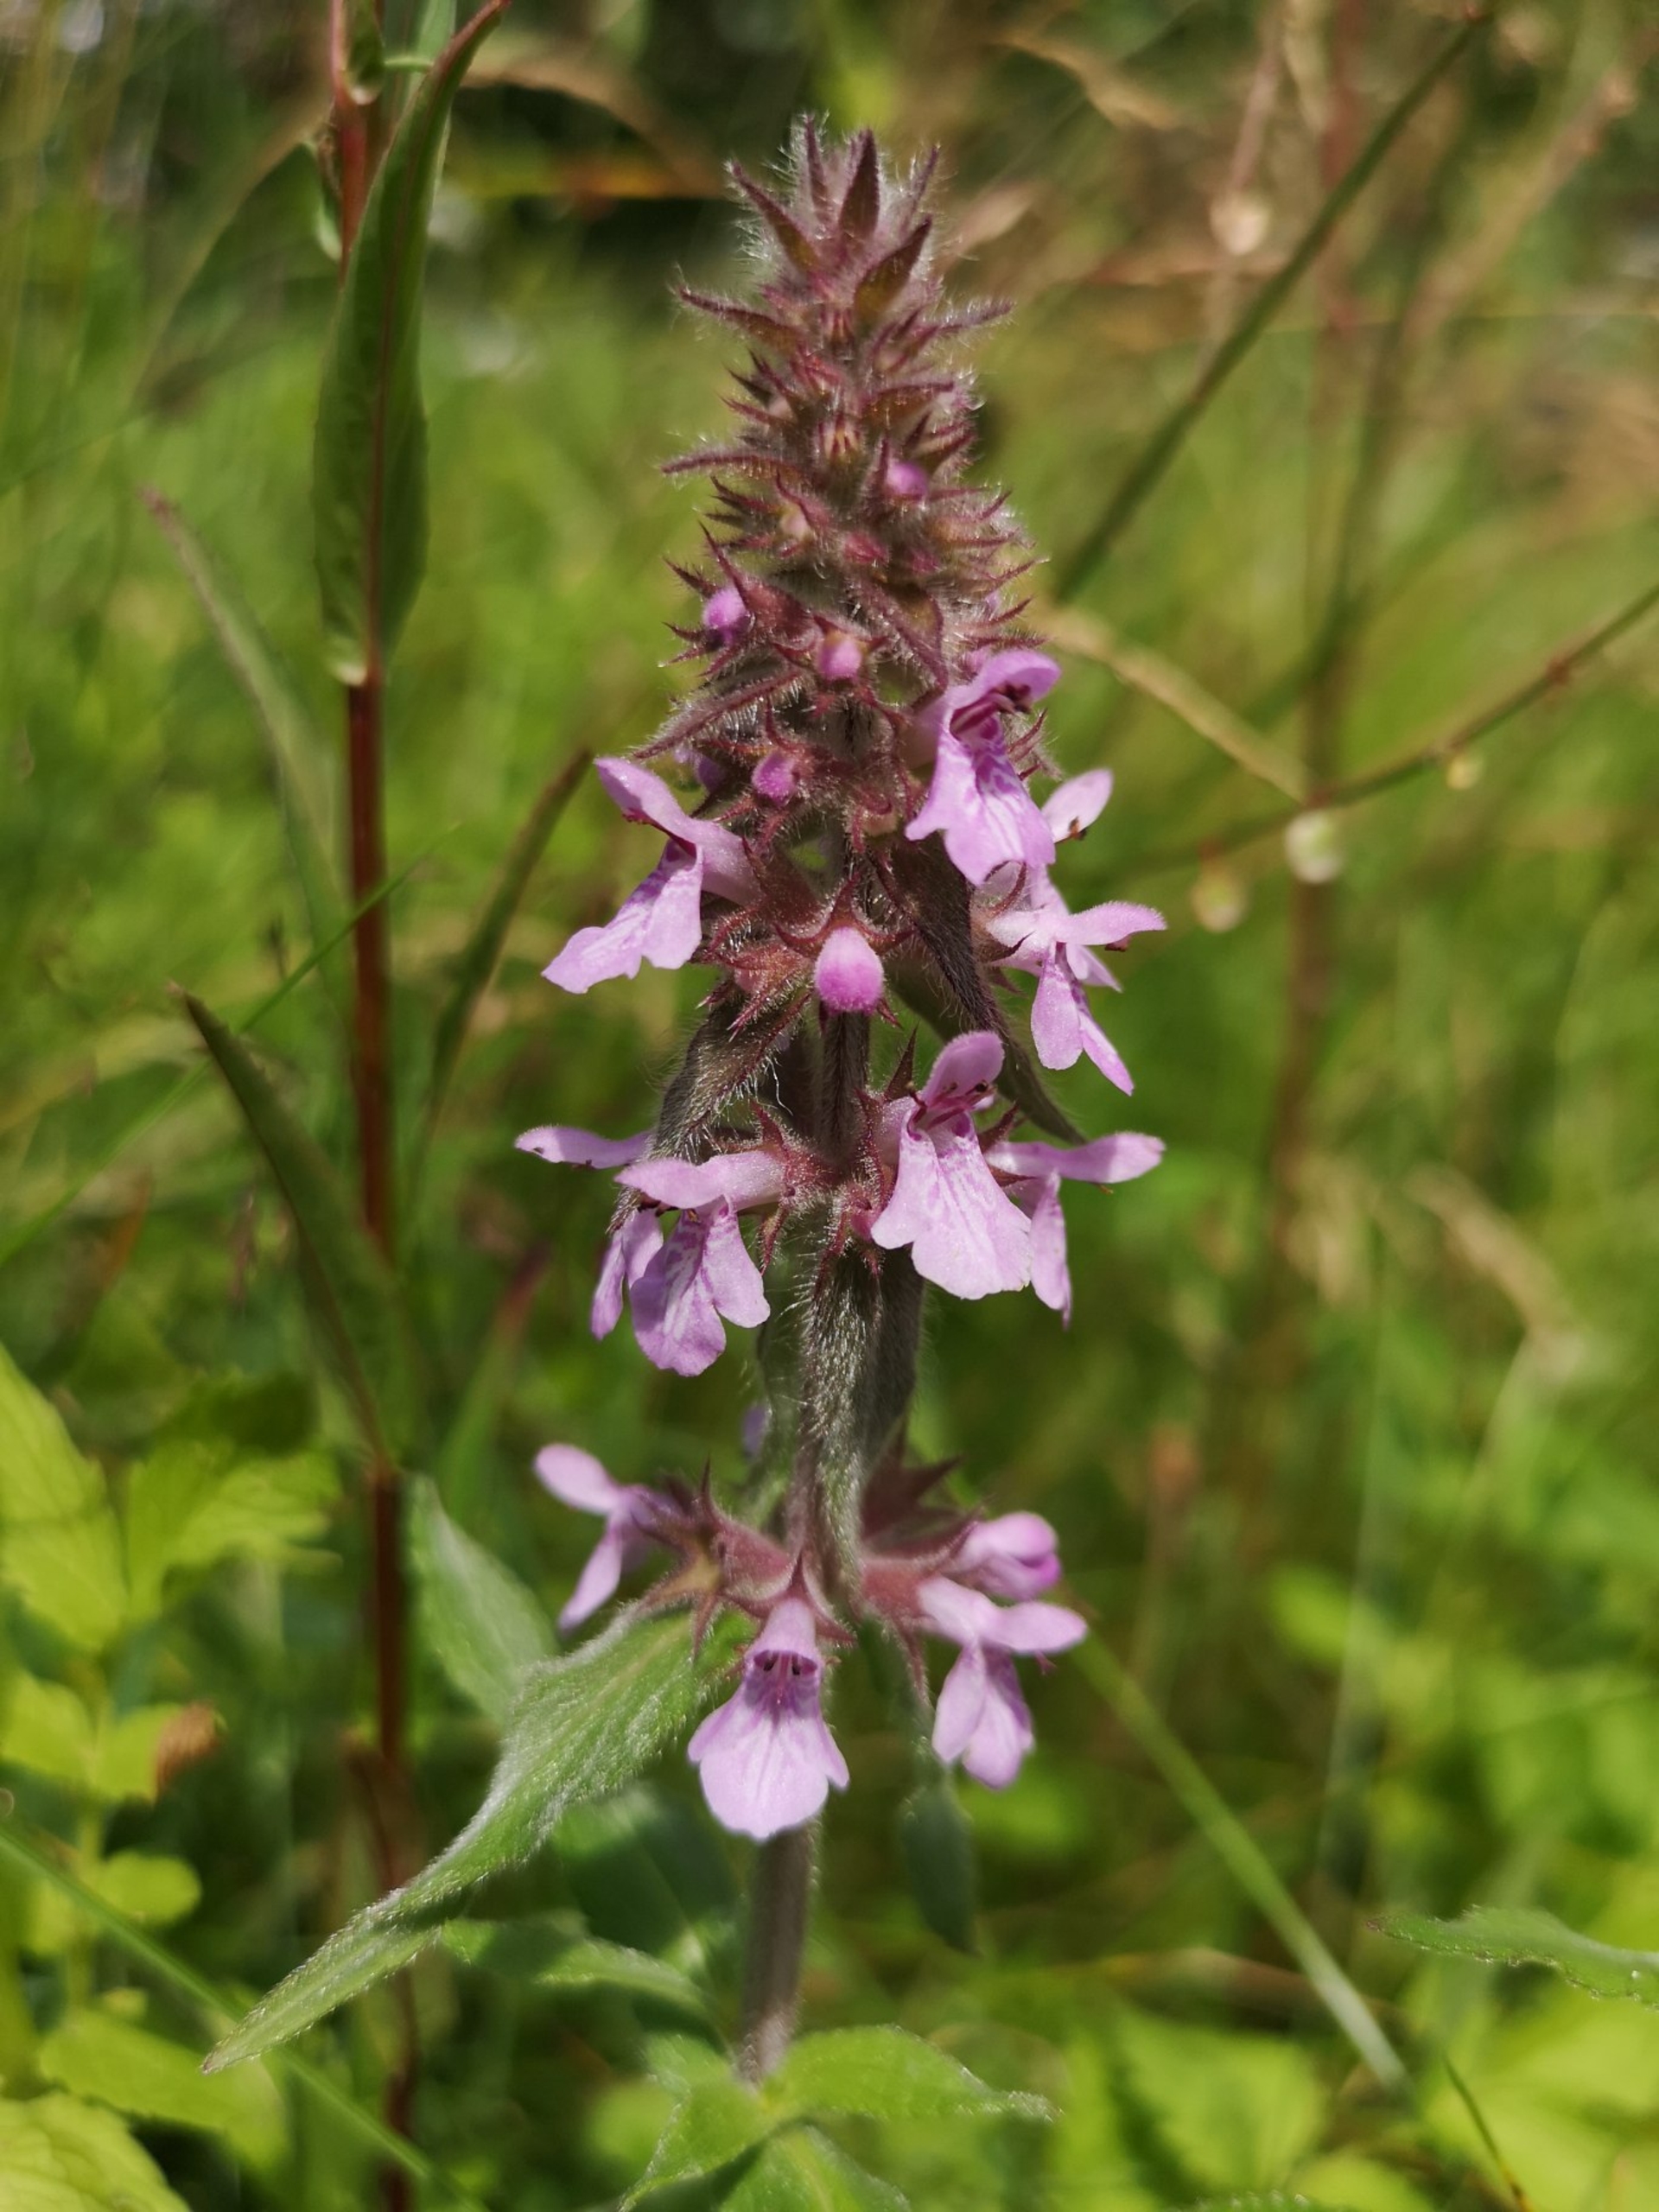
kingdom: Plantae
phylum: Tracheophyta
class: Magnoliopsida
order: Lamiales
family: Lamiaceae
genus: Stachys
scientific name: Stachys palustris
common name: Kær-galtetand
